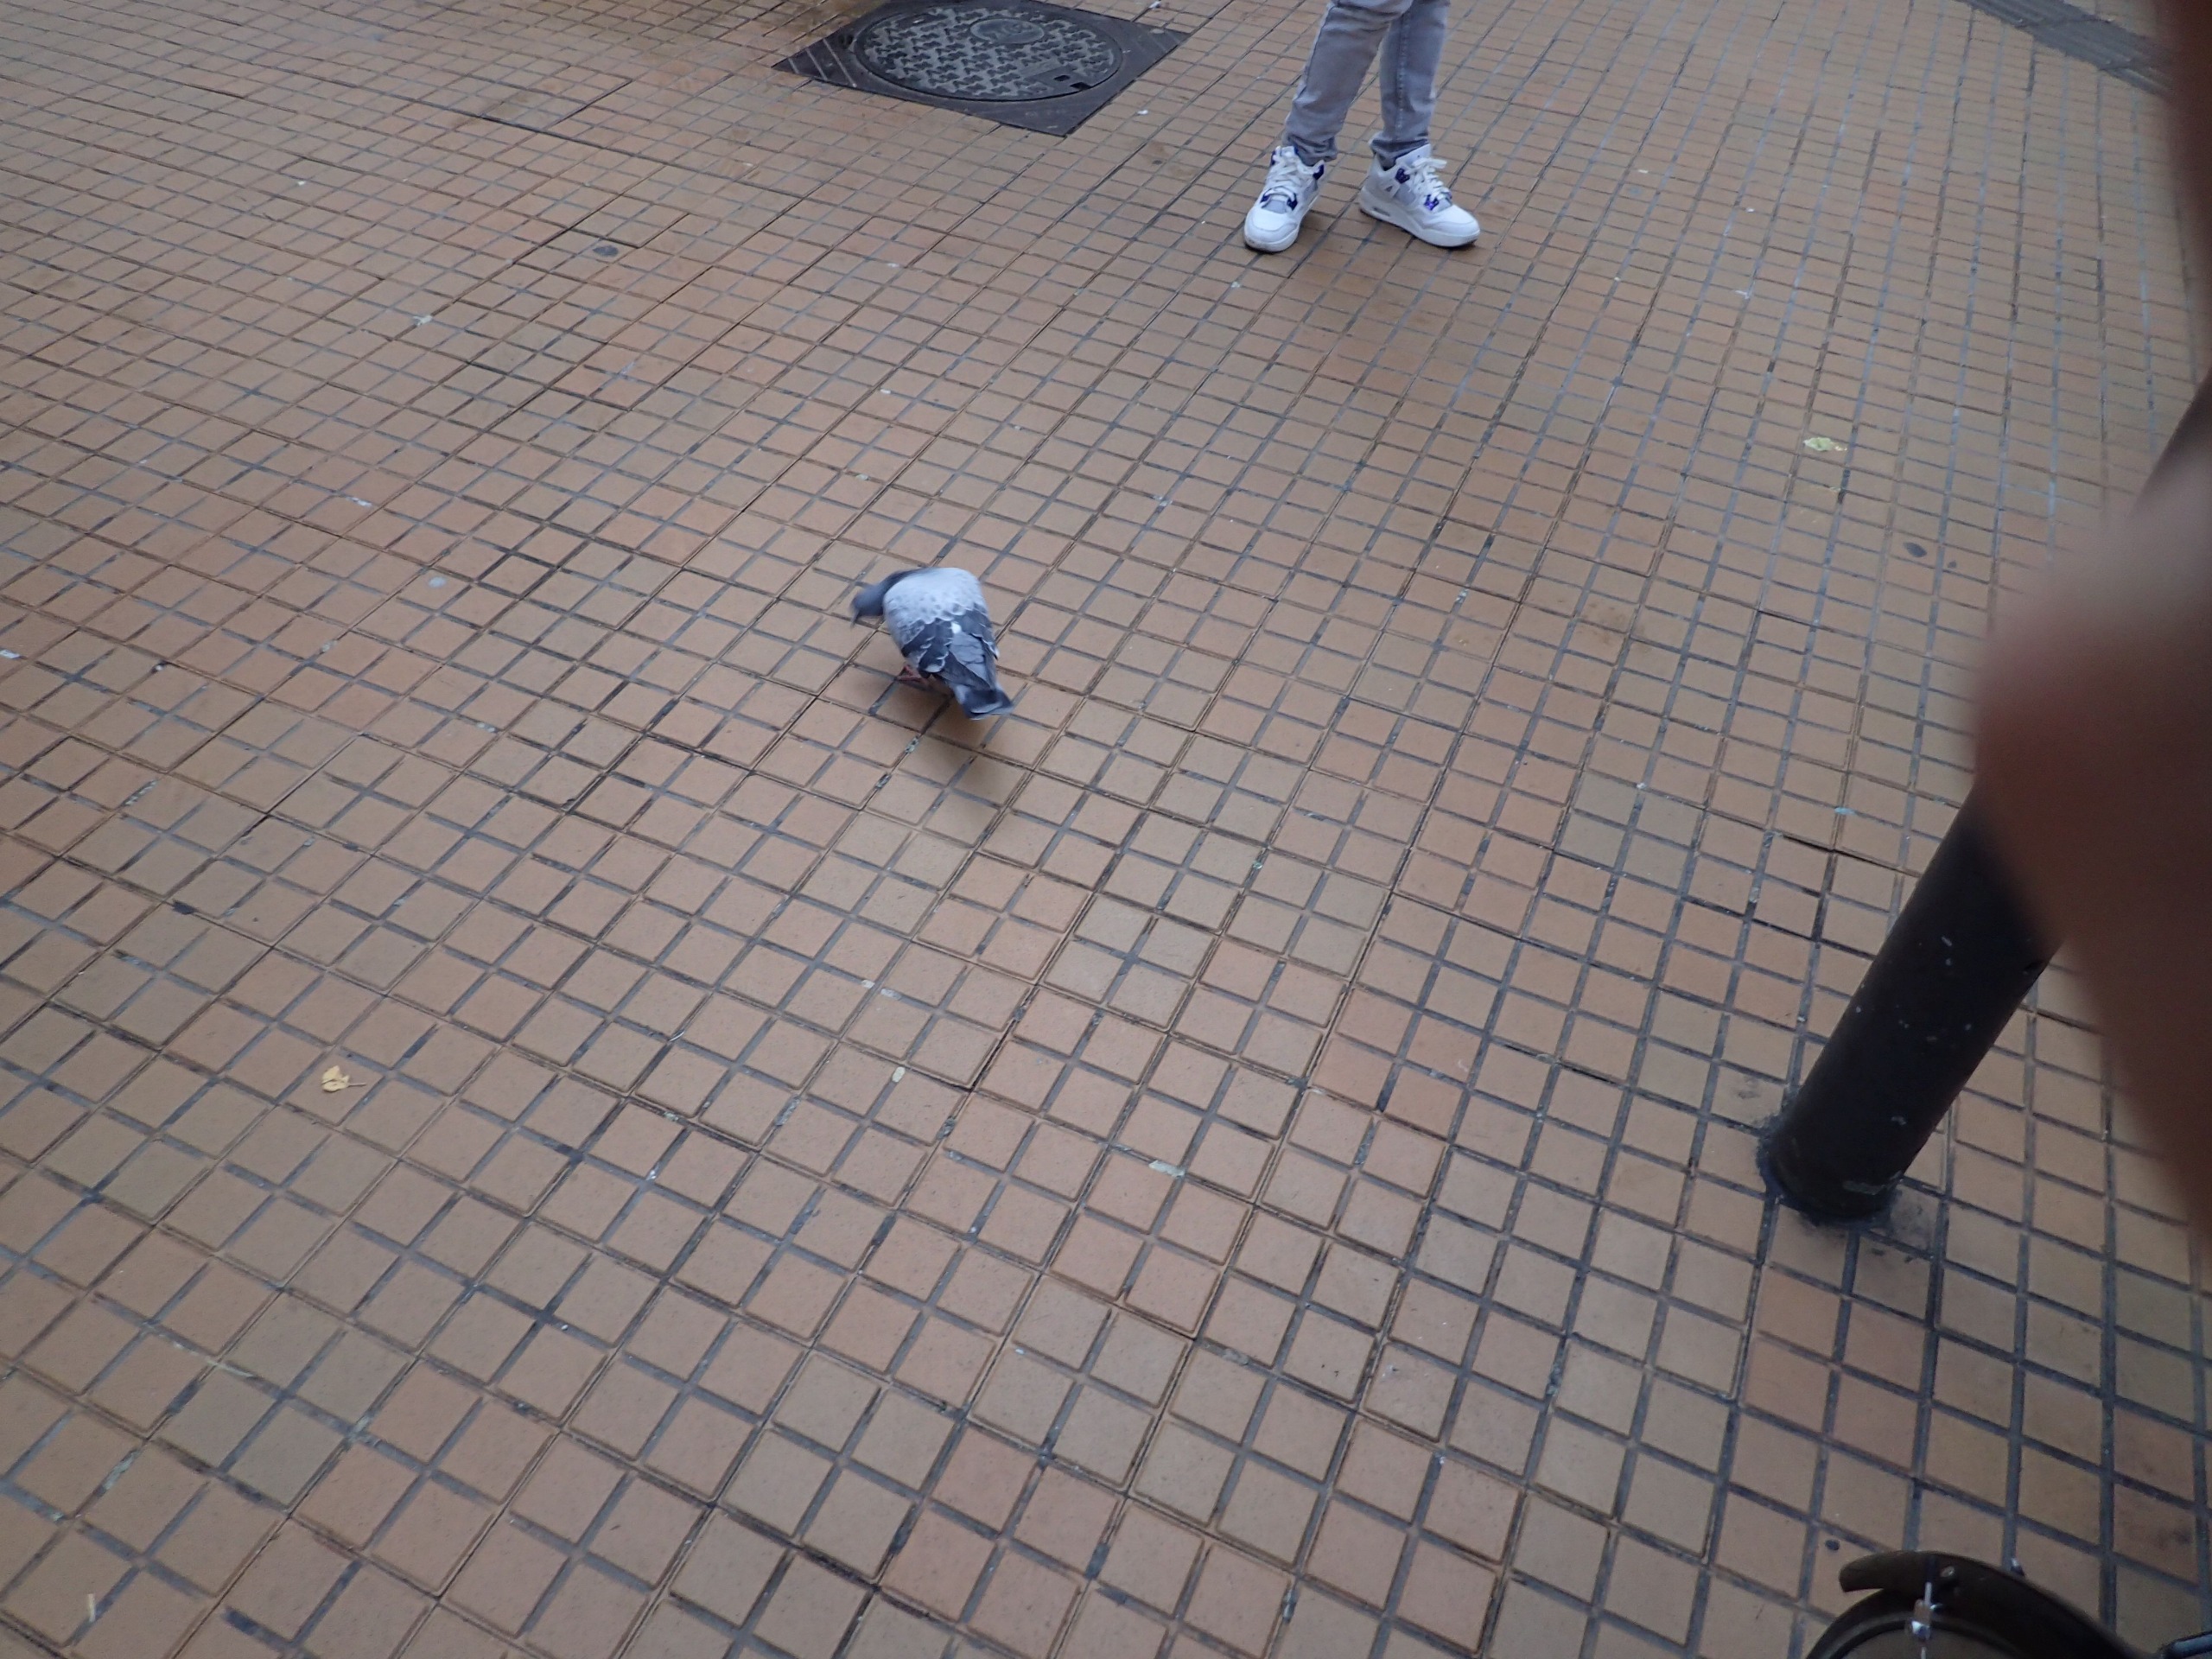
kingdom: Animalia
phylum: Chordata
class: Aves
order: Columbiformes
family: Columbidae
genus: Columba
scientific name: Columba livia
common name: Tamdue
